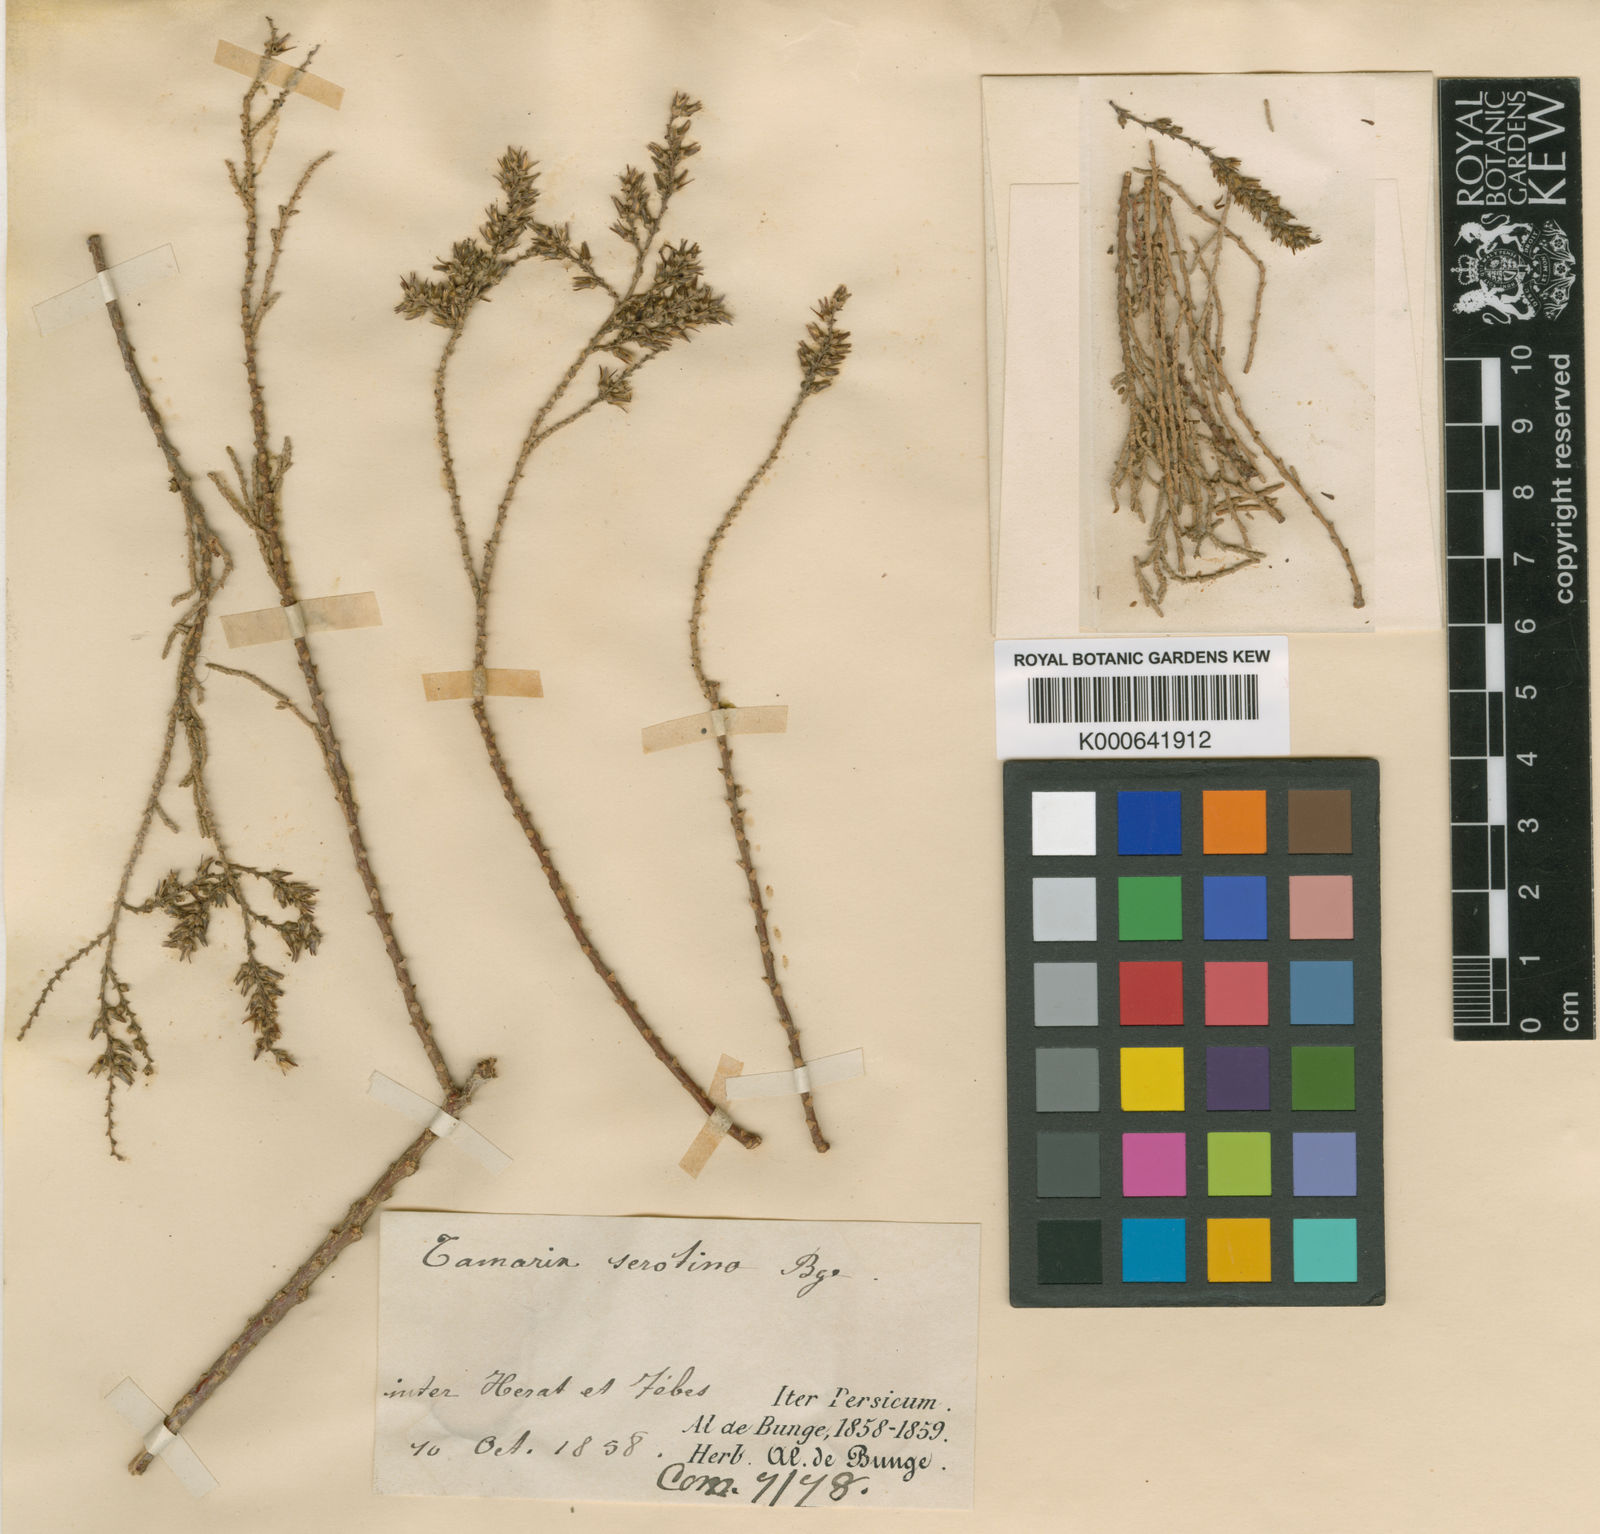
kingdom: Plantae
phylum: Tracheophyta
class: Magnoliopsida
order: Caryophyllales
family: Tamaricaceae
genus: Tamarix
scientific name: Tamarix karelinii
